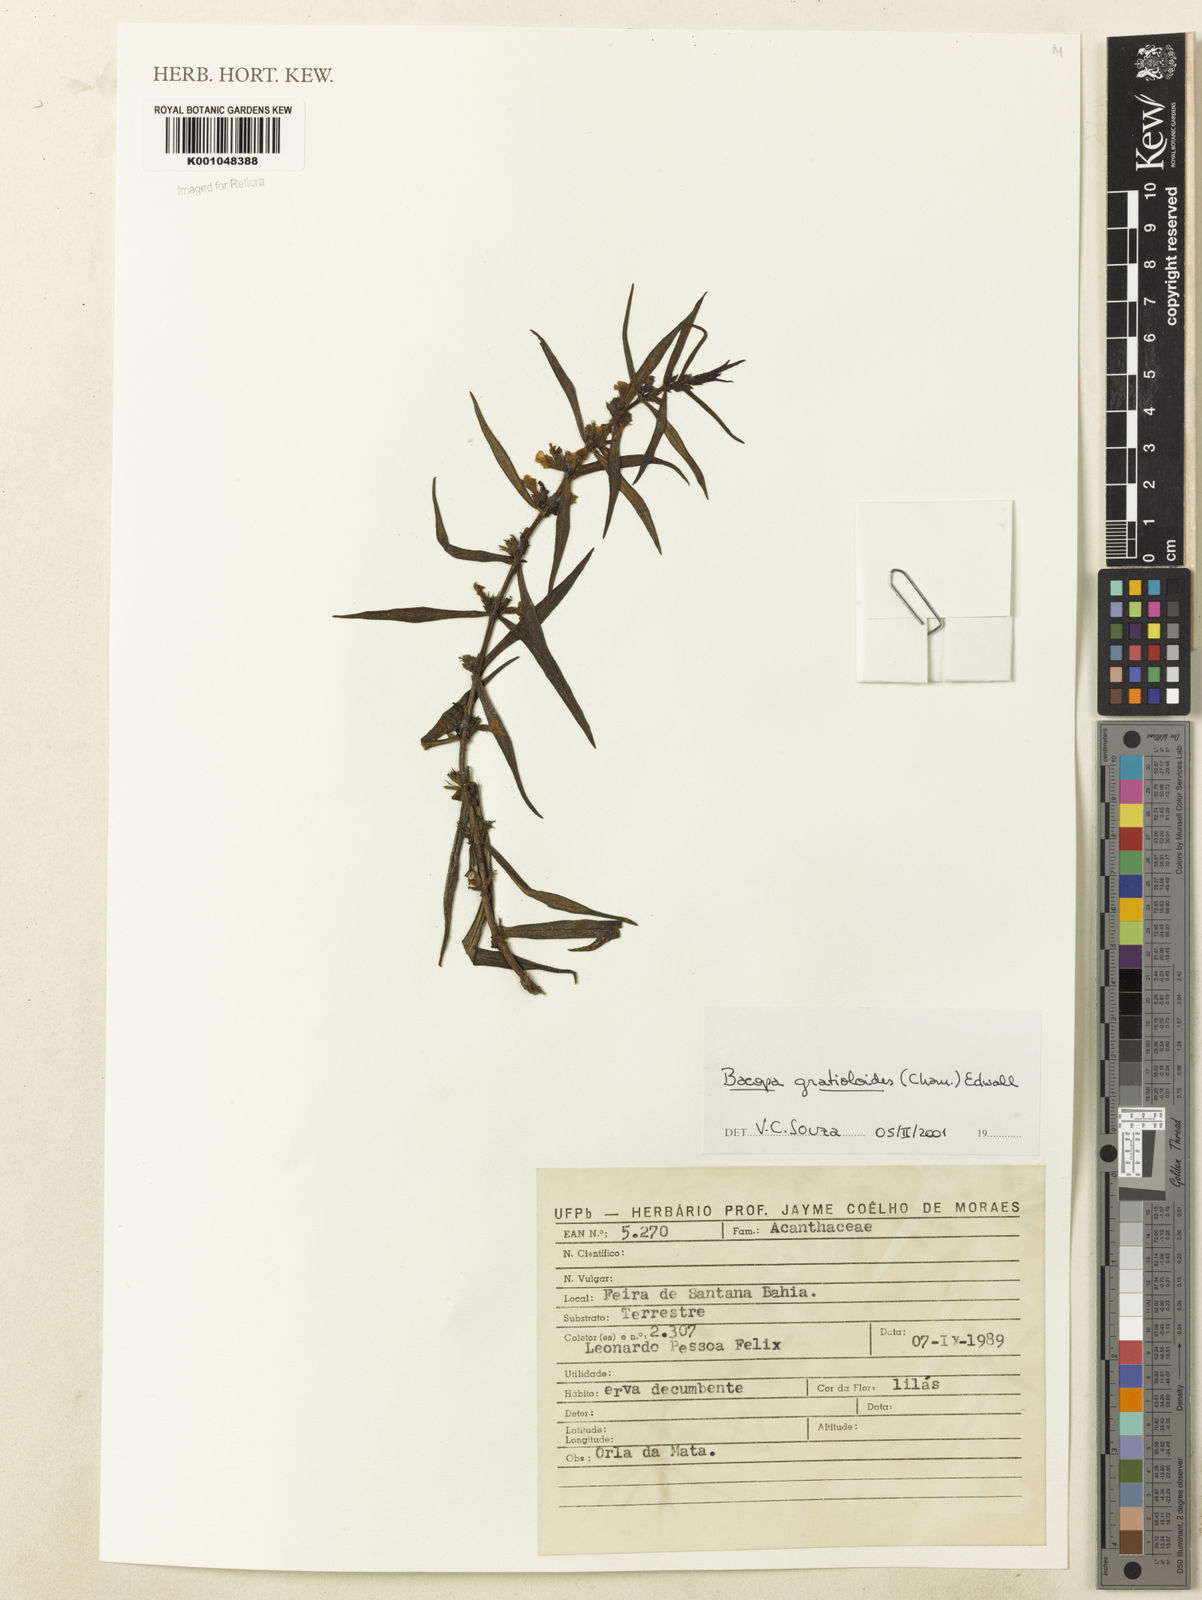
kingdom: Plantae
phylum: Tracheophyta
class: Magnoliopsida
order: Lamiales
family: Plantaginaceae
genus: Bacopa
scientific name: Bacopa
